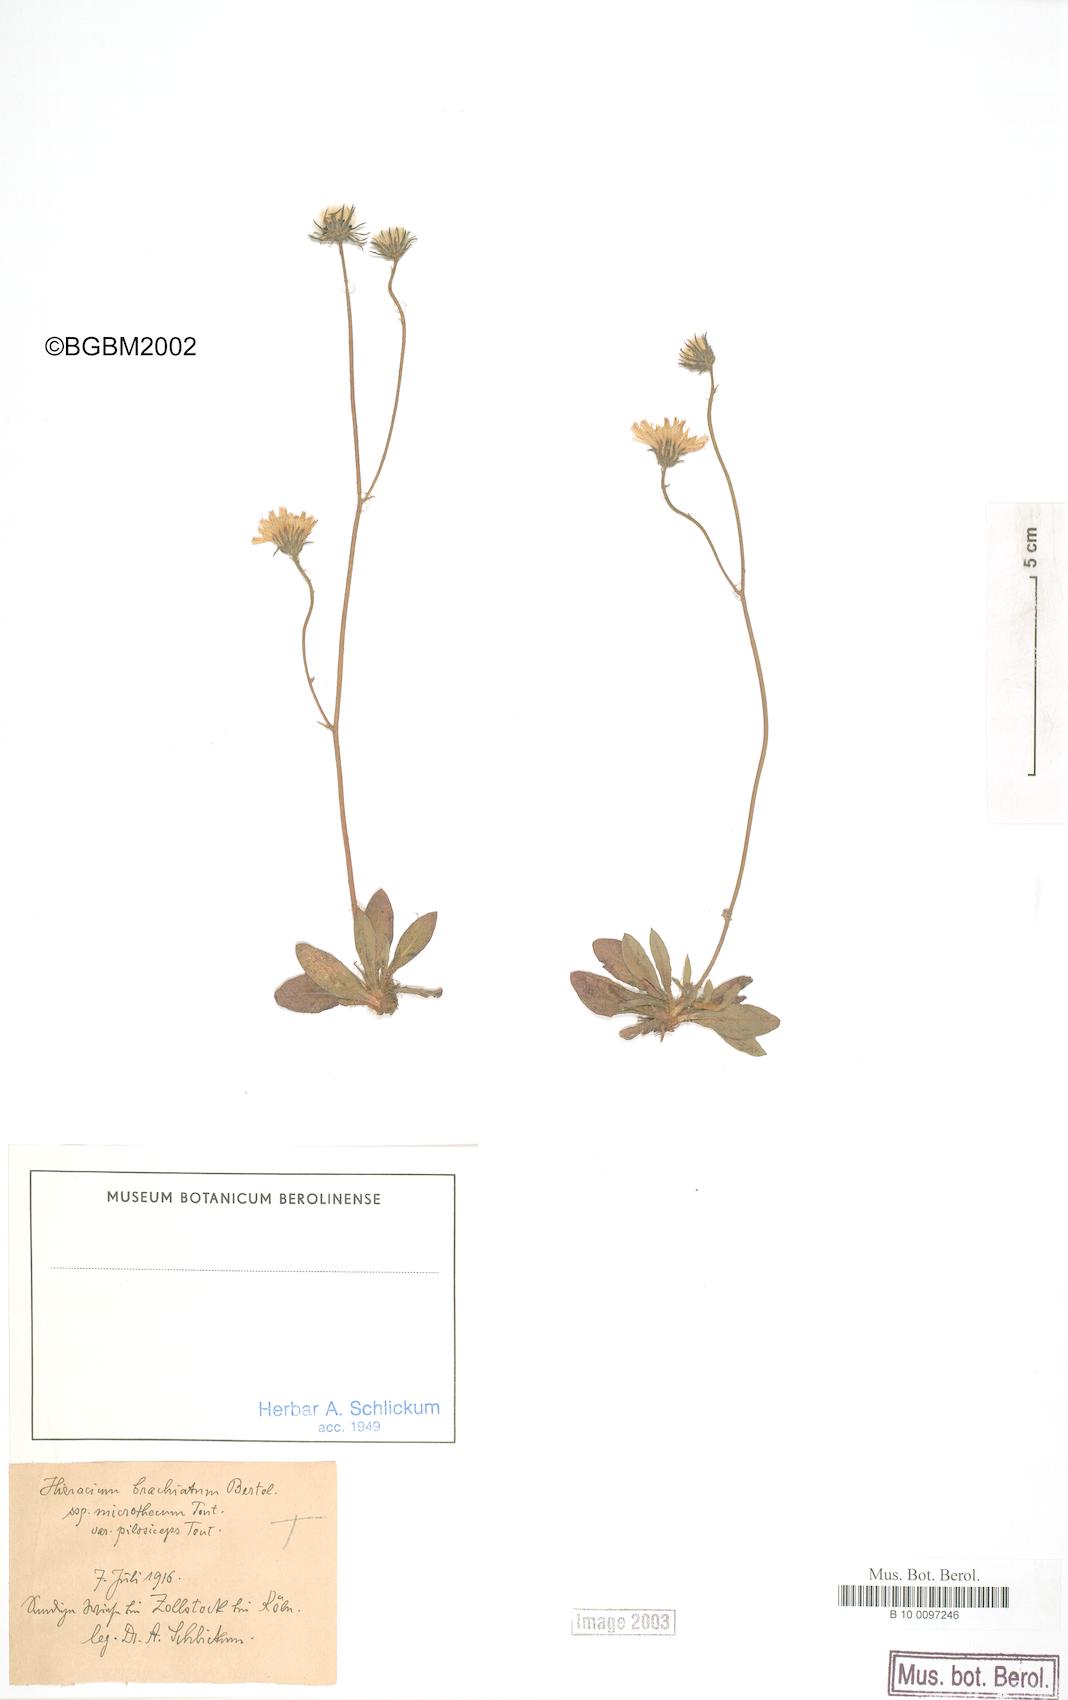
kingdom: Plantae
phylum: Tracheophyta
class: Magnoliopsida
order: Asterales
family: Asteraceae
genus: Pilosella
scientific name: Pilosella acutifolia
